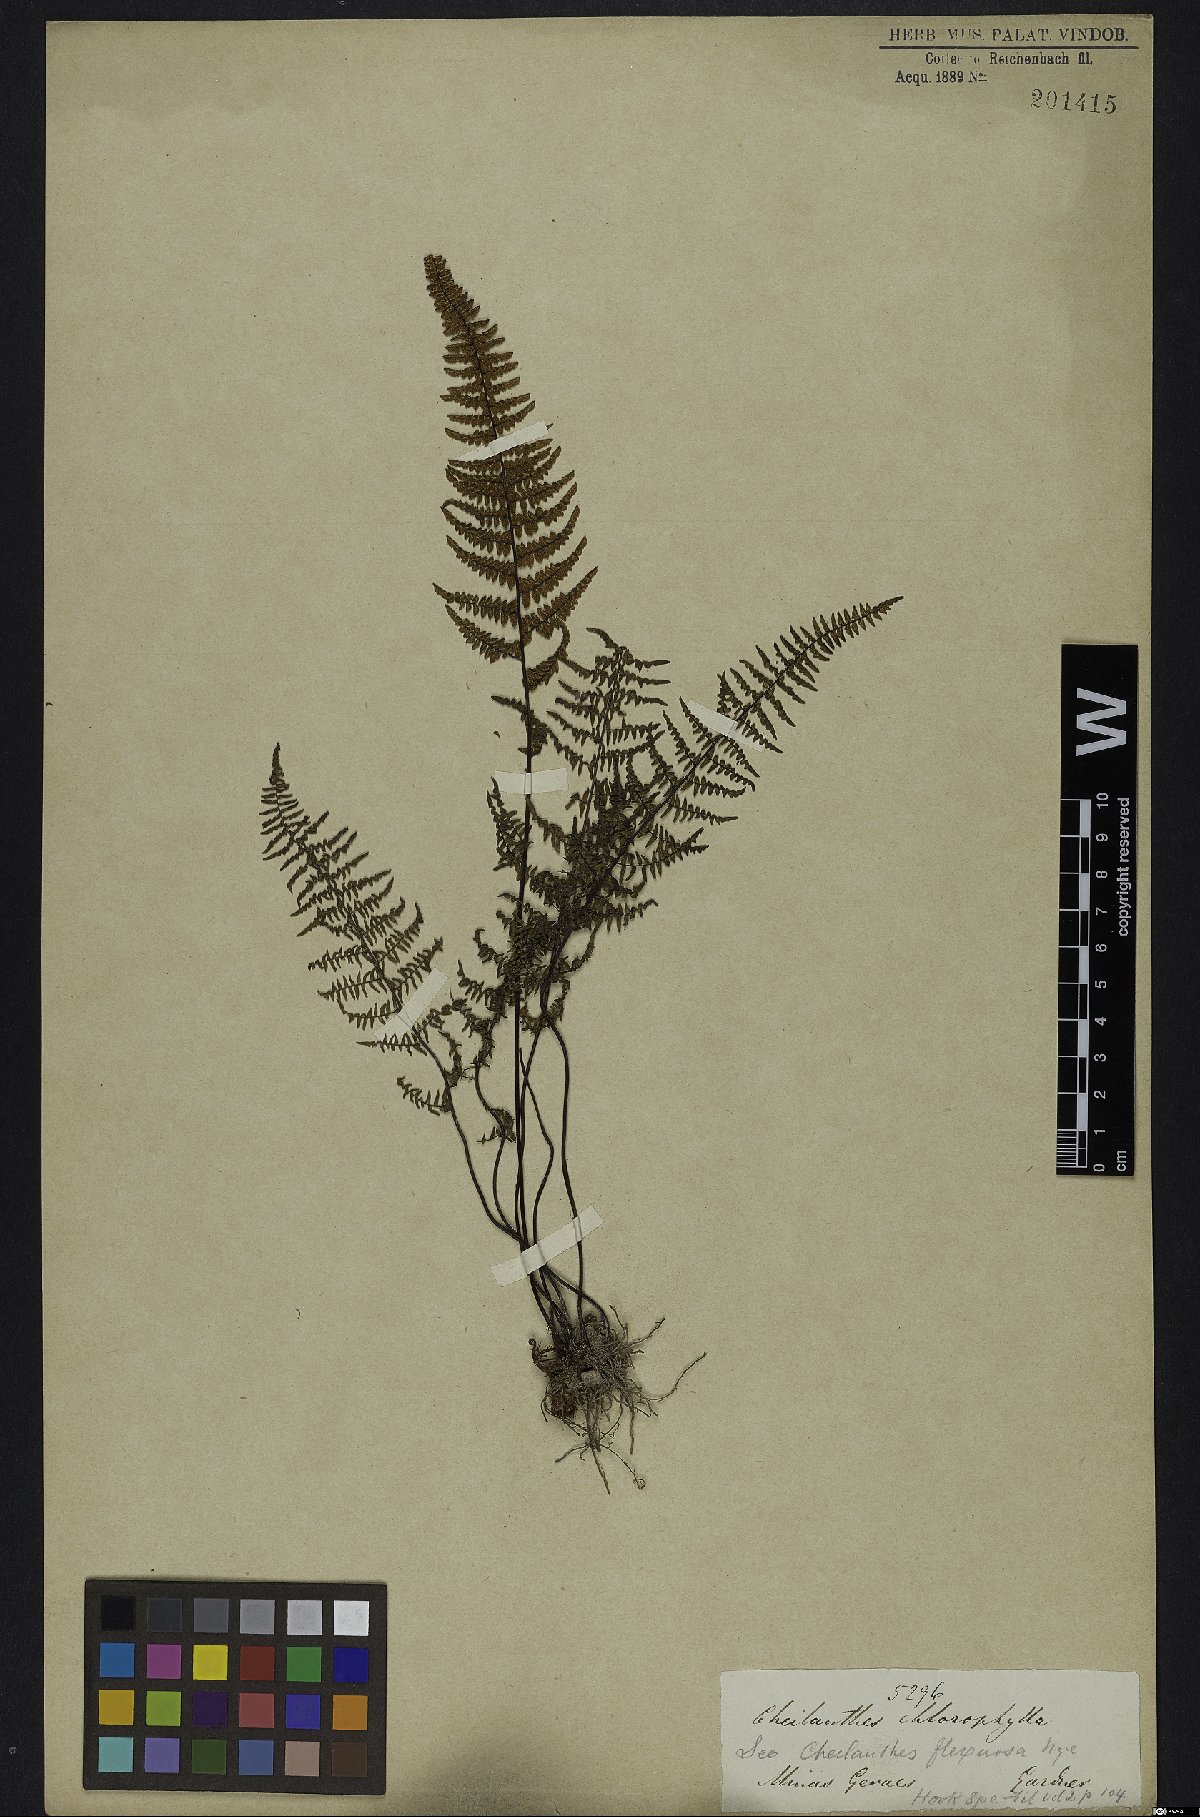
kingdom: Plantae
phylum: Tracheophyta
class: Polypodiopsida
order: Polypodiales
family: Pteridaceae
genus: Adiantopsis
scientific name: Adiantopsis chlorophylla
